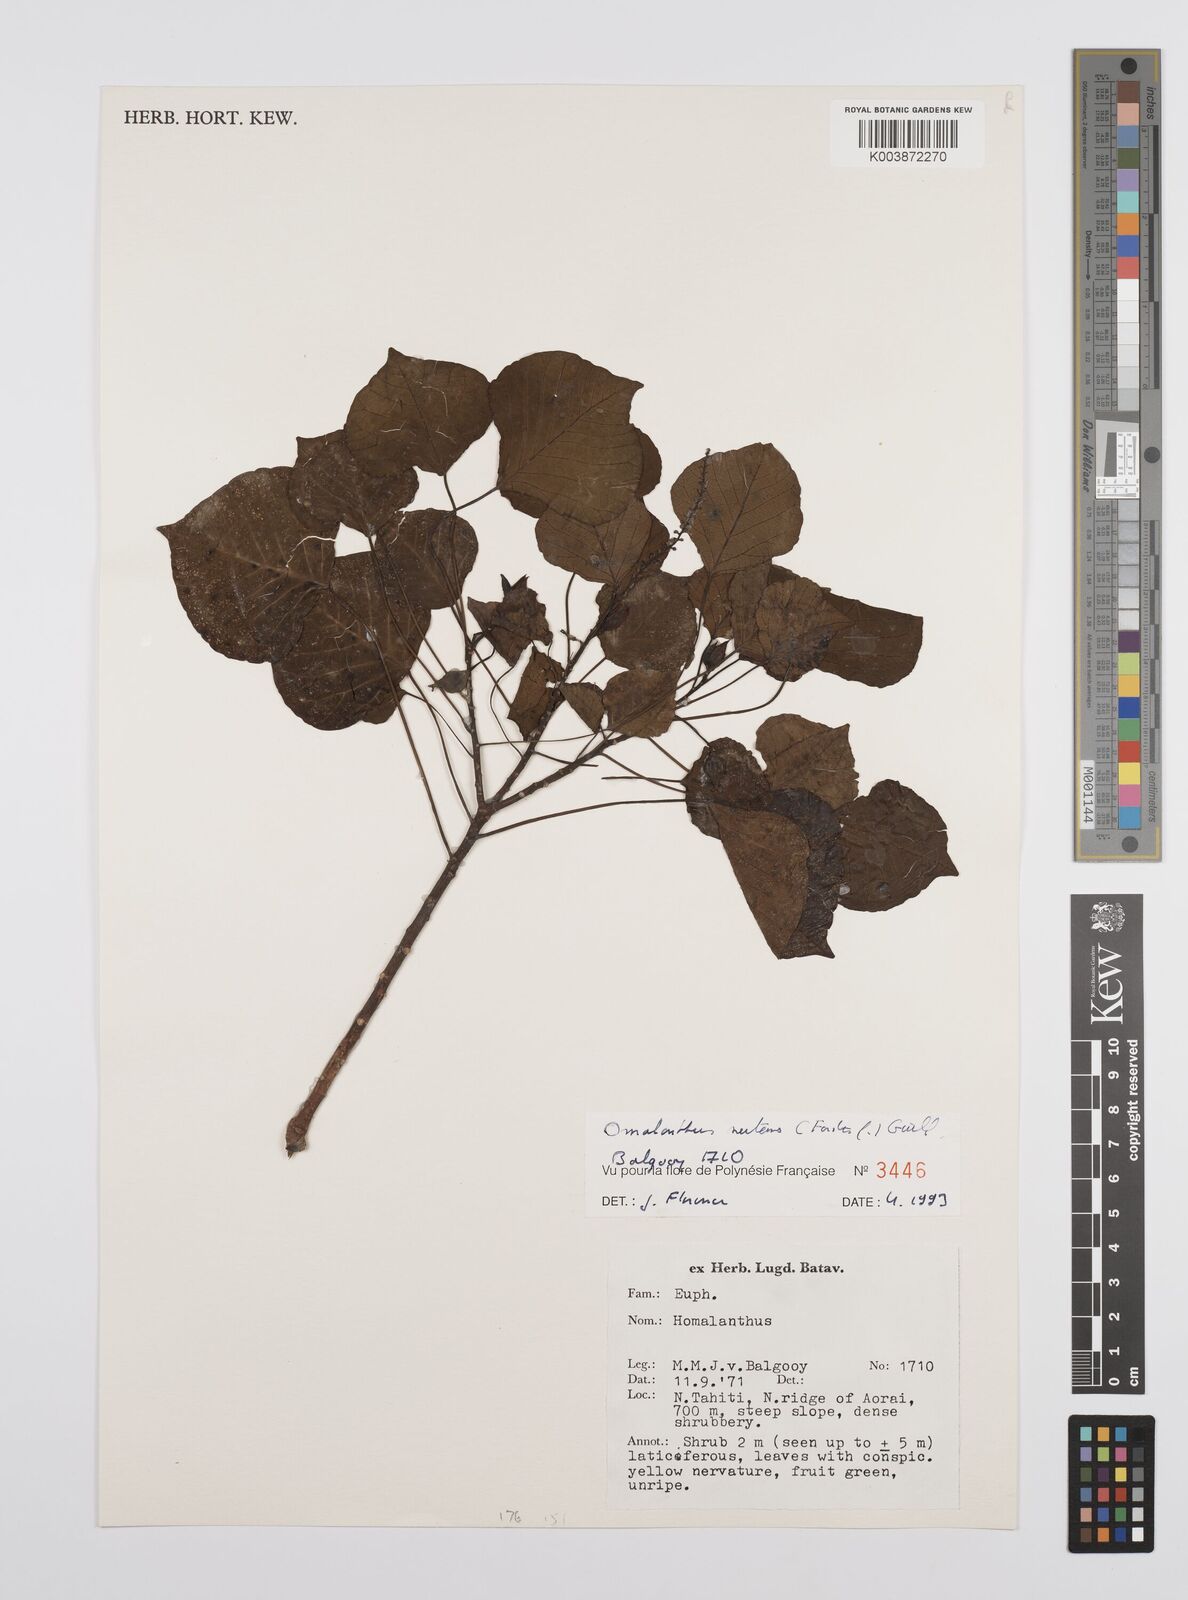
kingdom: Plantae
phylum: Tracheophyta
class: Magnoliopsida
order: Malpighiales
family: Euphorbiaceae
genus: Homalanthus
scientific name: Homalanthus nutans
